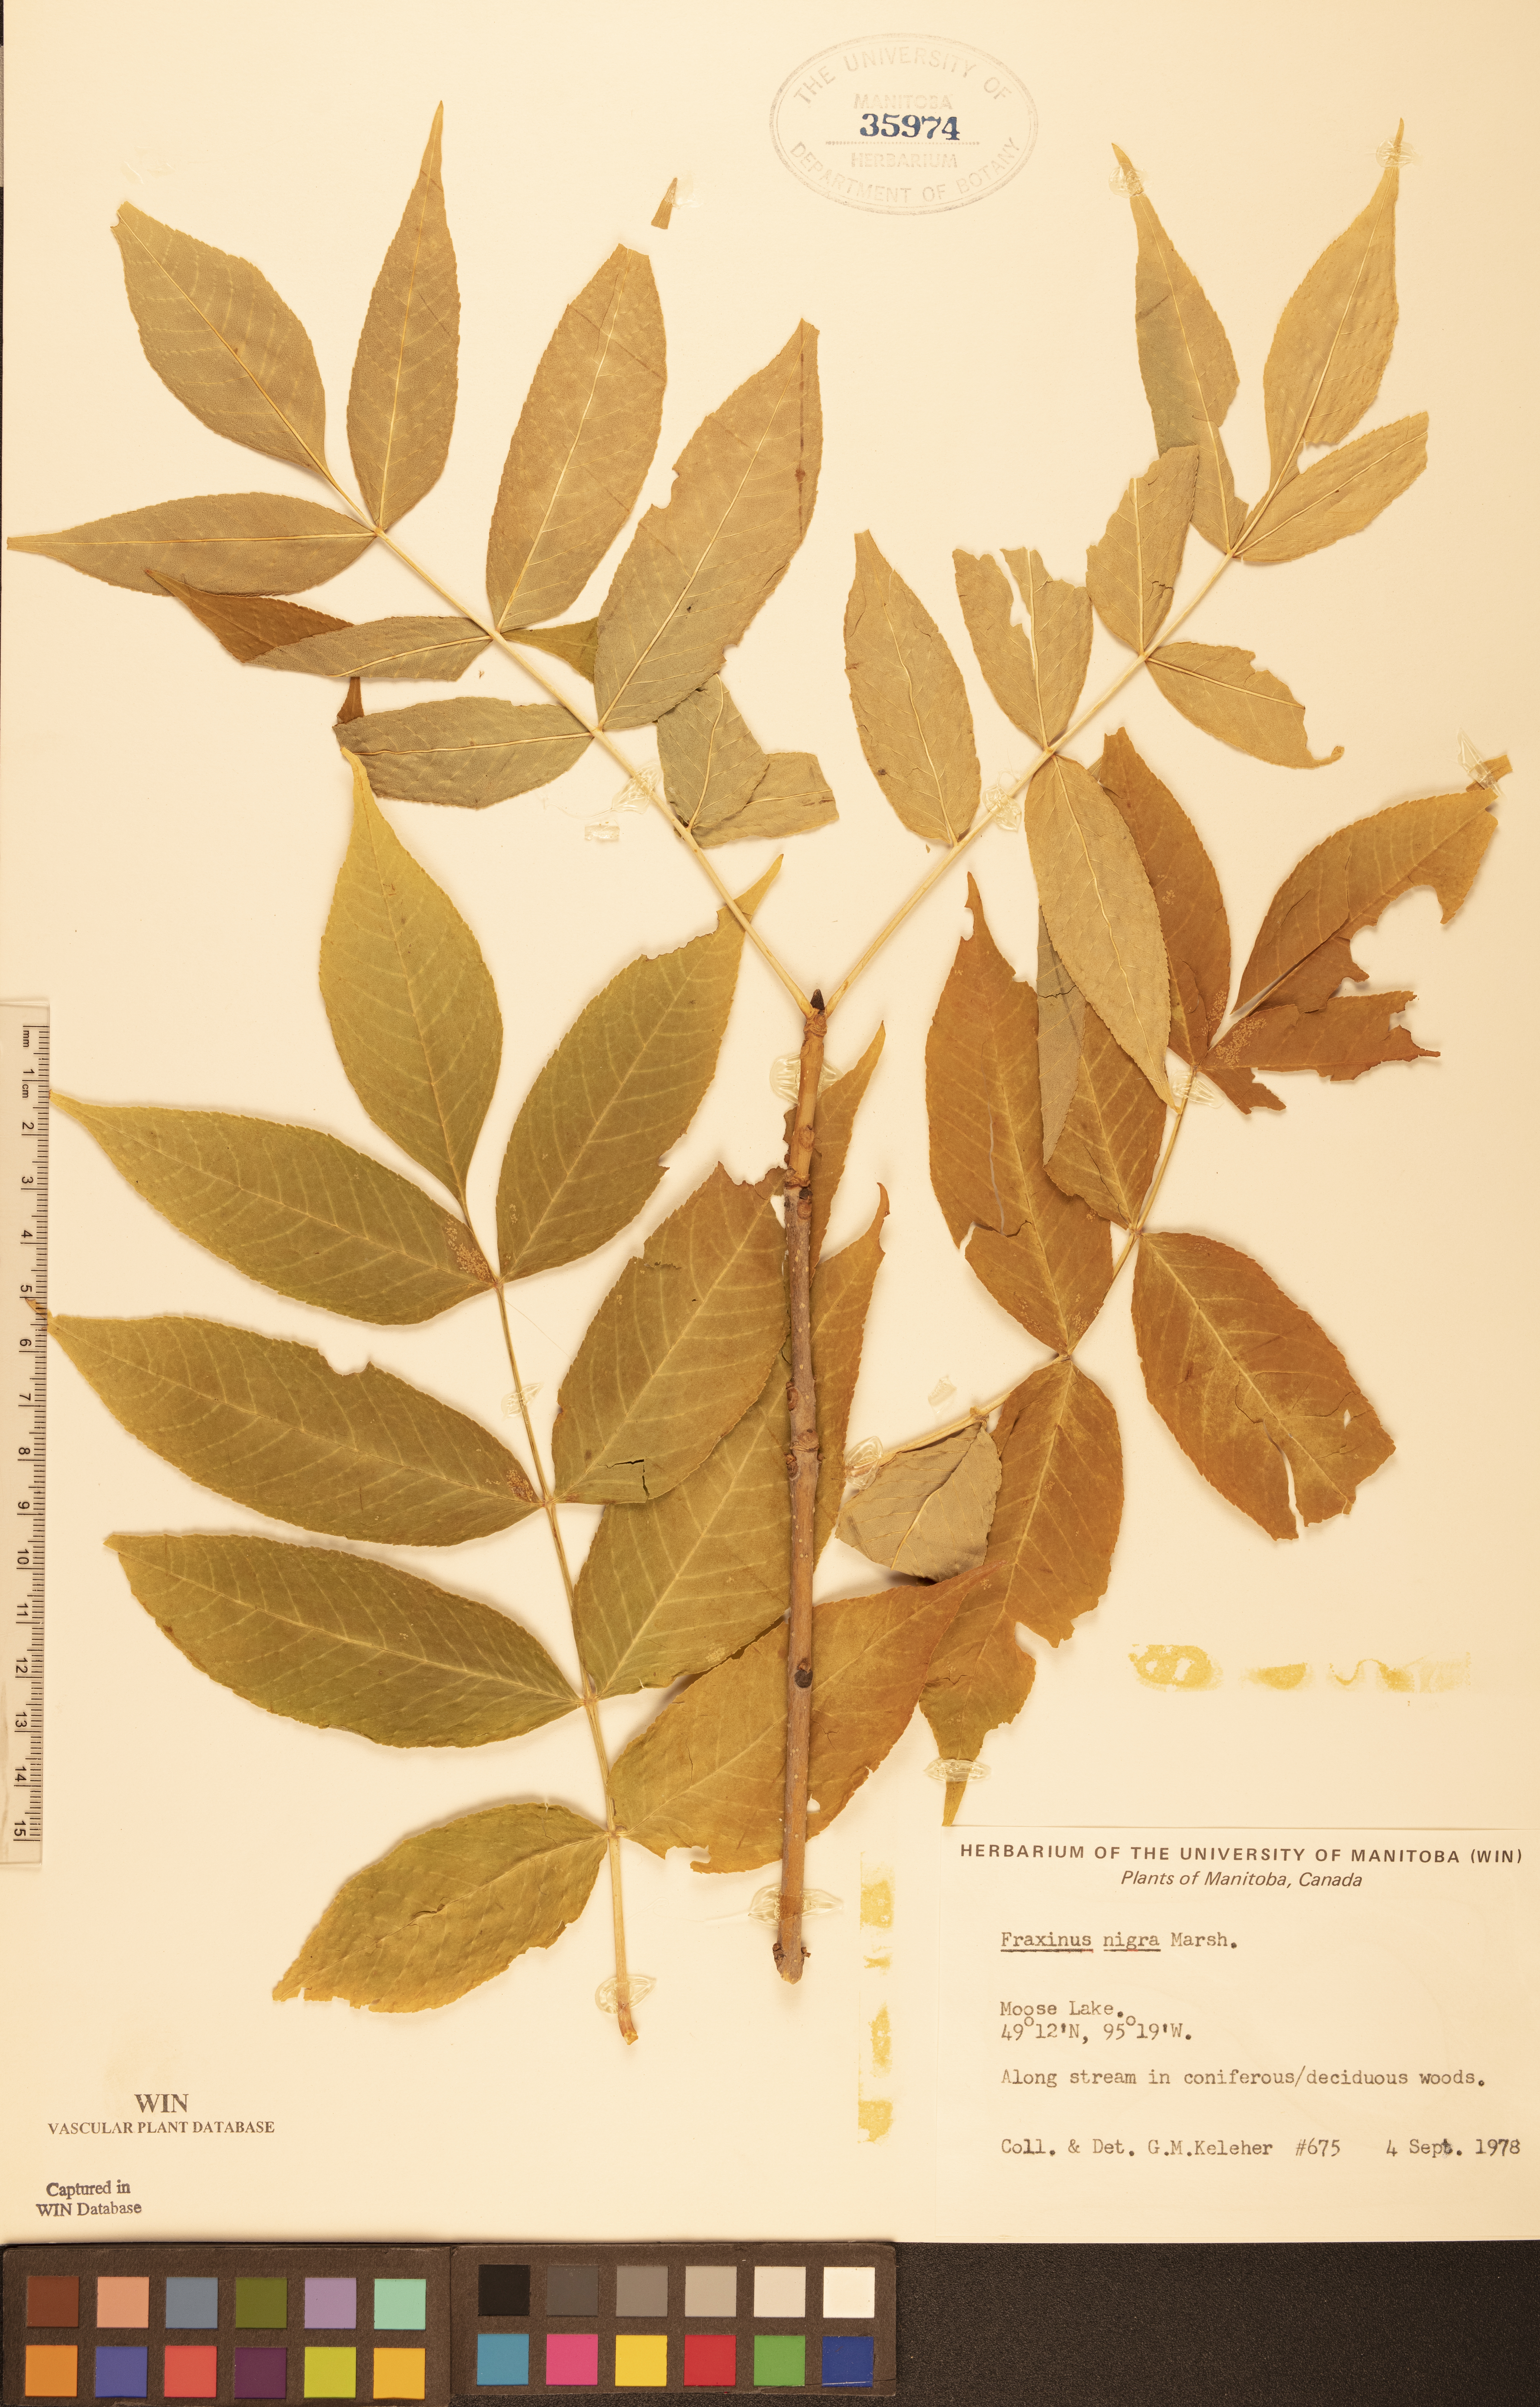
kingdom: Plantae
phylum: Tracheophyta
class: Magnoliopsida
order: Lamiales
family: Oleaceae
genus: Fraxinus
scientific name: Fraxinus nigra
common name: Black ash
